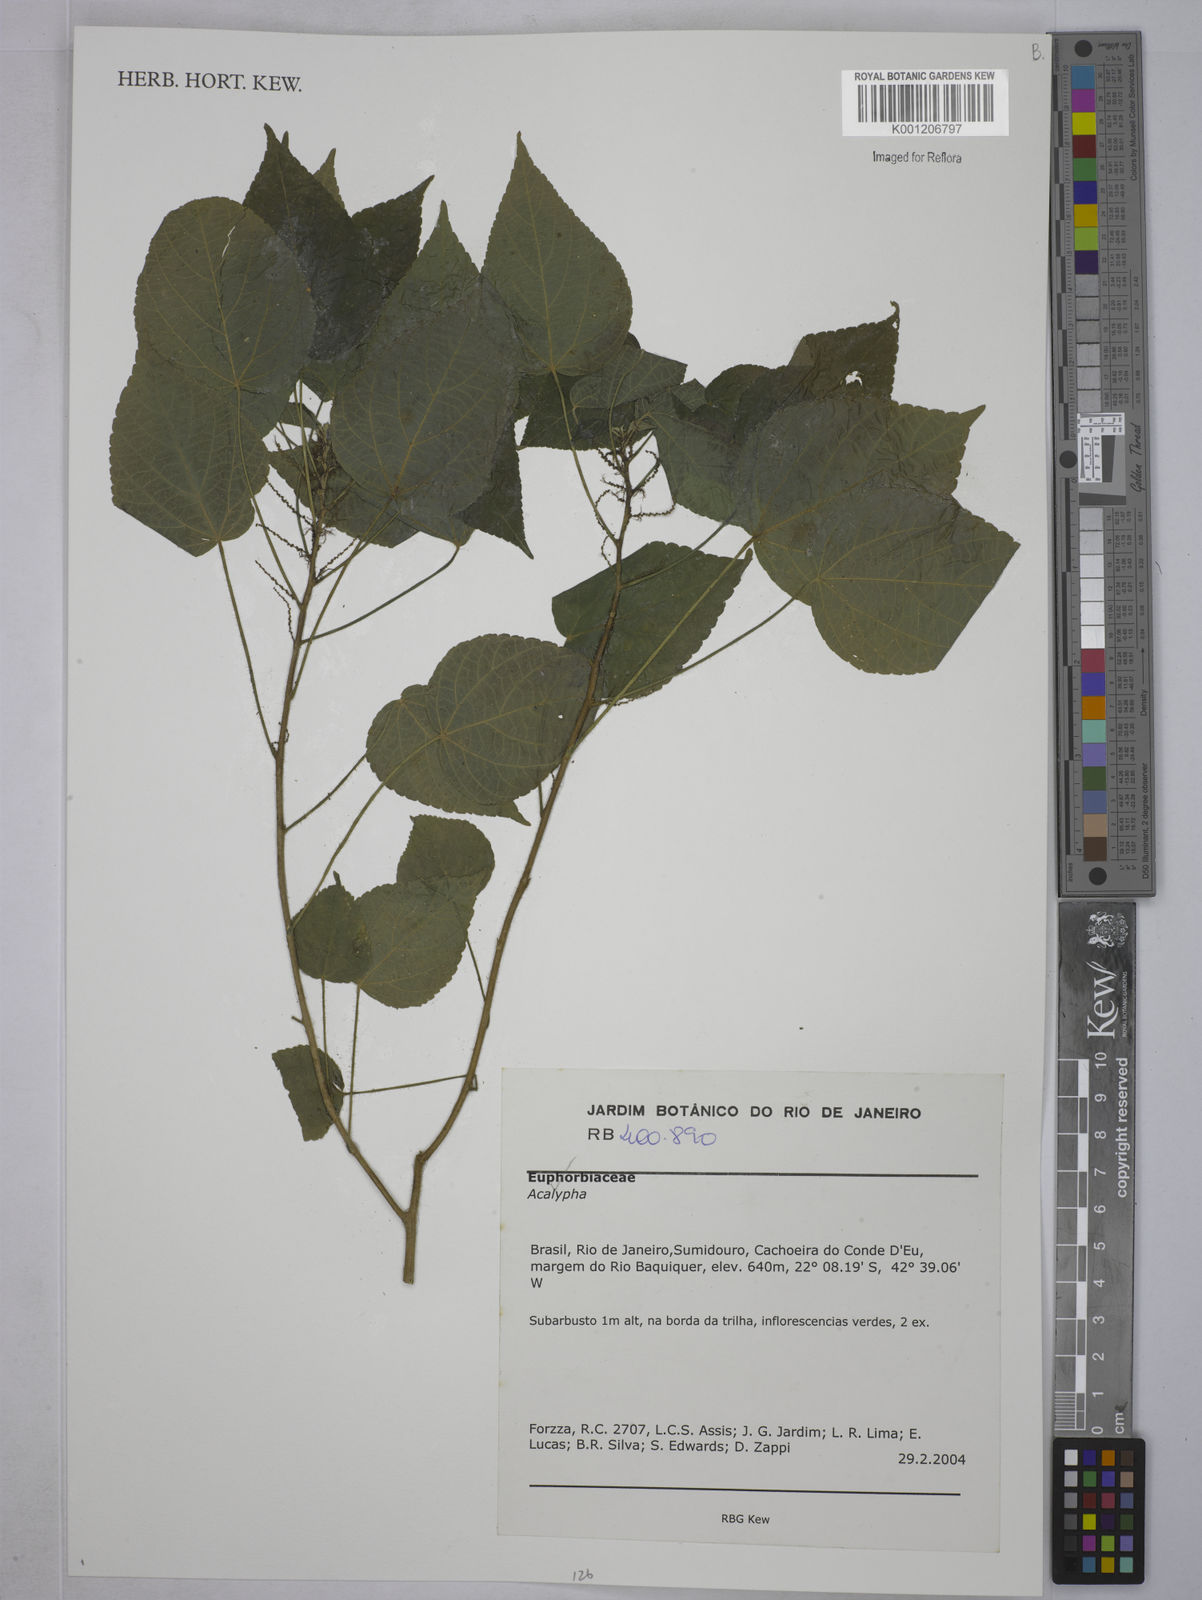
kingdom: Plantae
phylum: Tracheophyta
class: Magnoliopsida
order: Malpighiales
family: Euphorbiaceae
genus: Acalypha
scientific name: Acalypha
